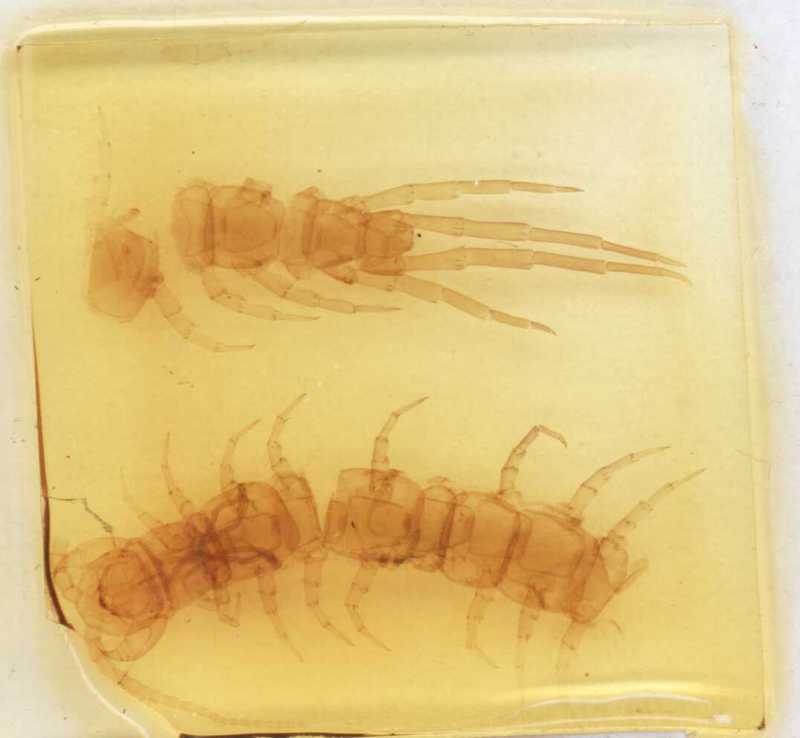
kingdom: Animalia
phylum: Arthropoda
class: Chilopoda
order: Lithobiomorpha
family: Lithobiidae
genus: Hessebius
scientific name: Hessebius barbipes
